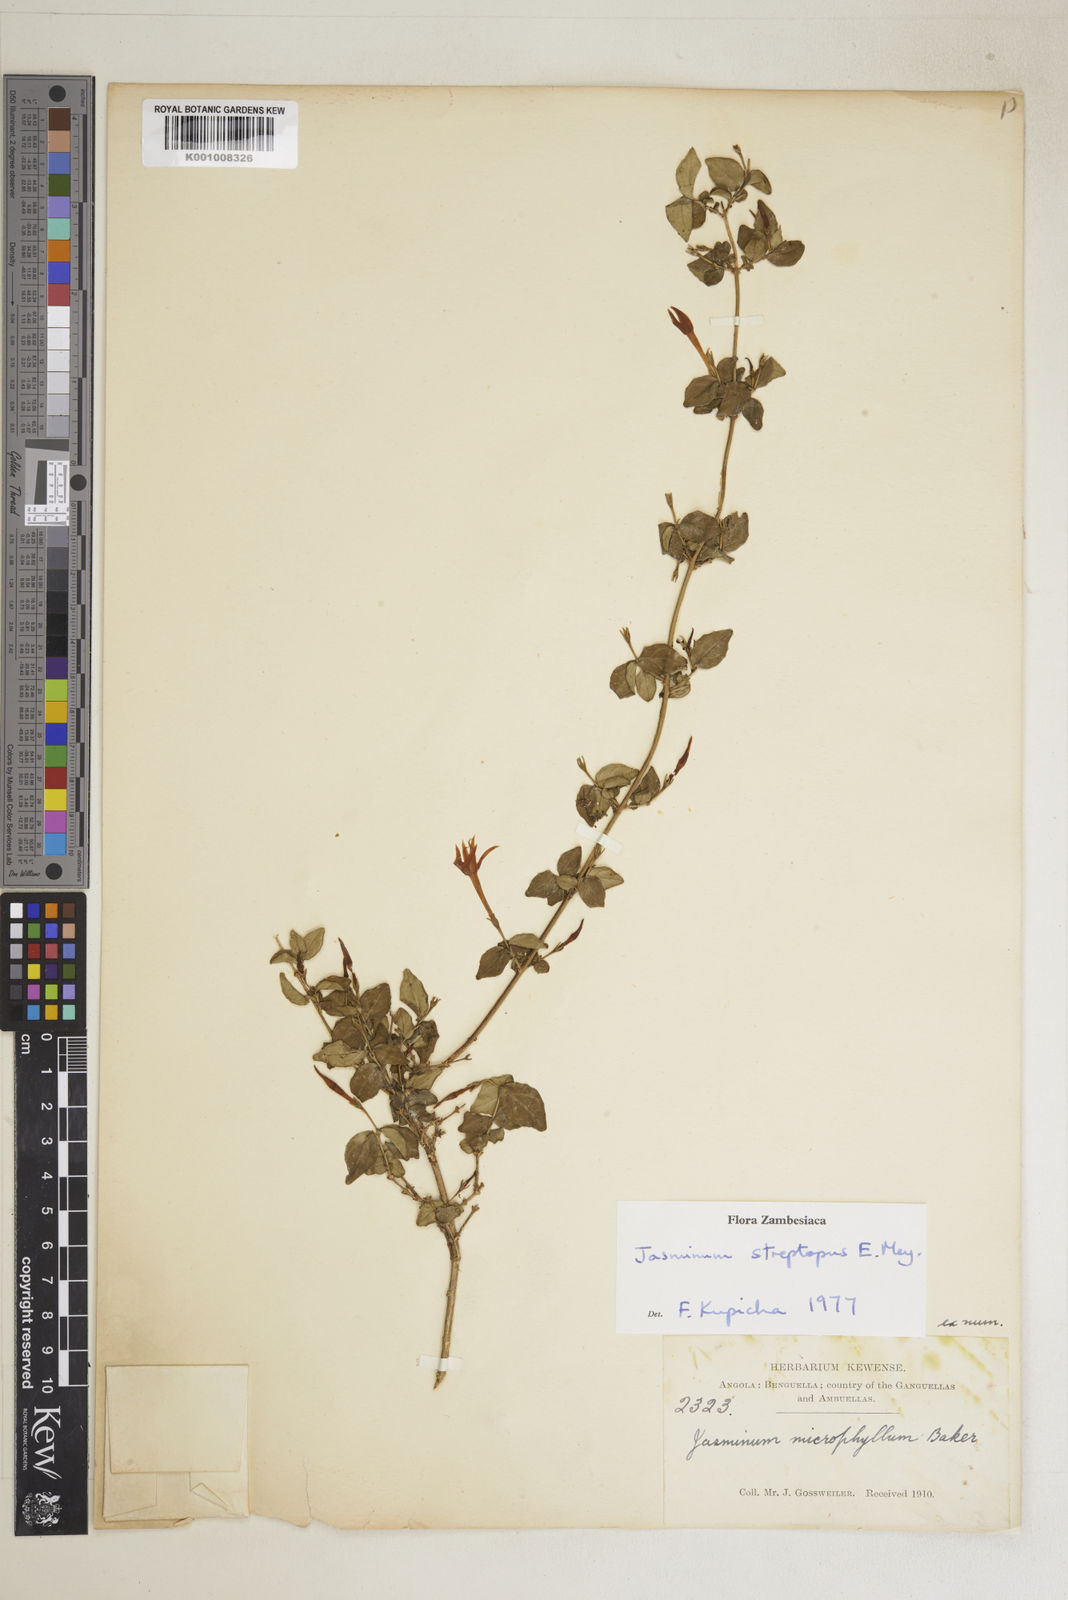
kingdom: Plantae
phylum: Tracheophyta
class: Magnoliopsida
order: Lamiales
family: Oleaceae
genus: Jasminum
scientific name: Jasminum streptopus
